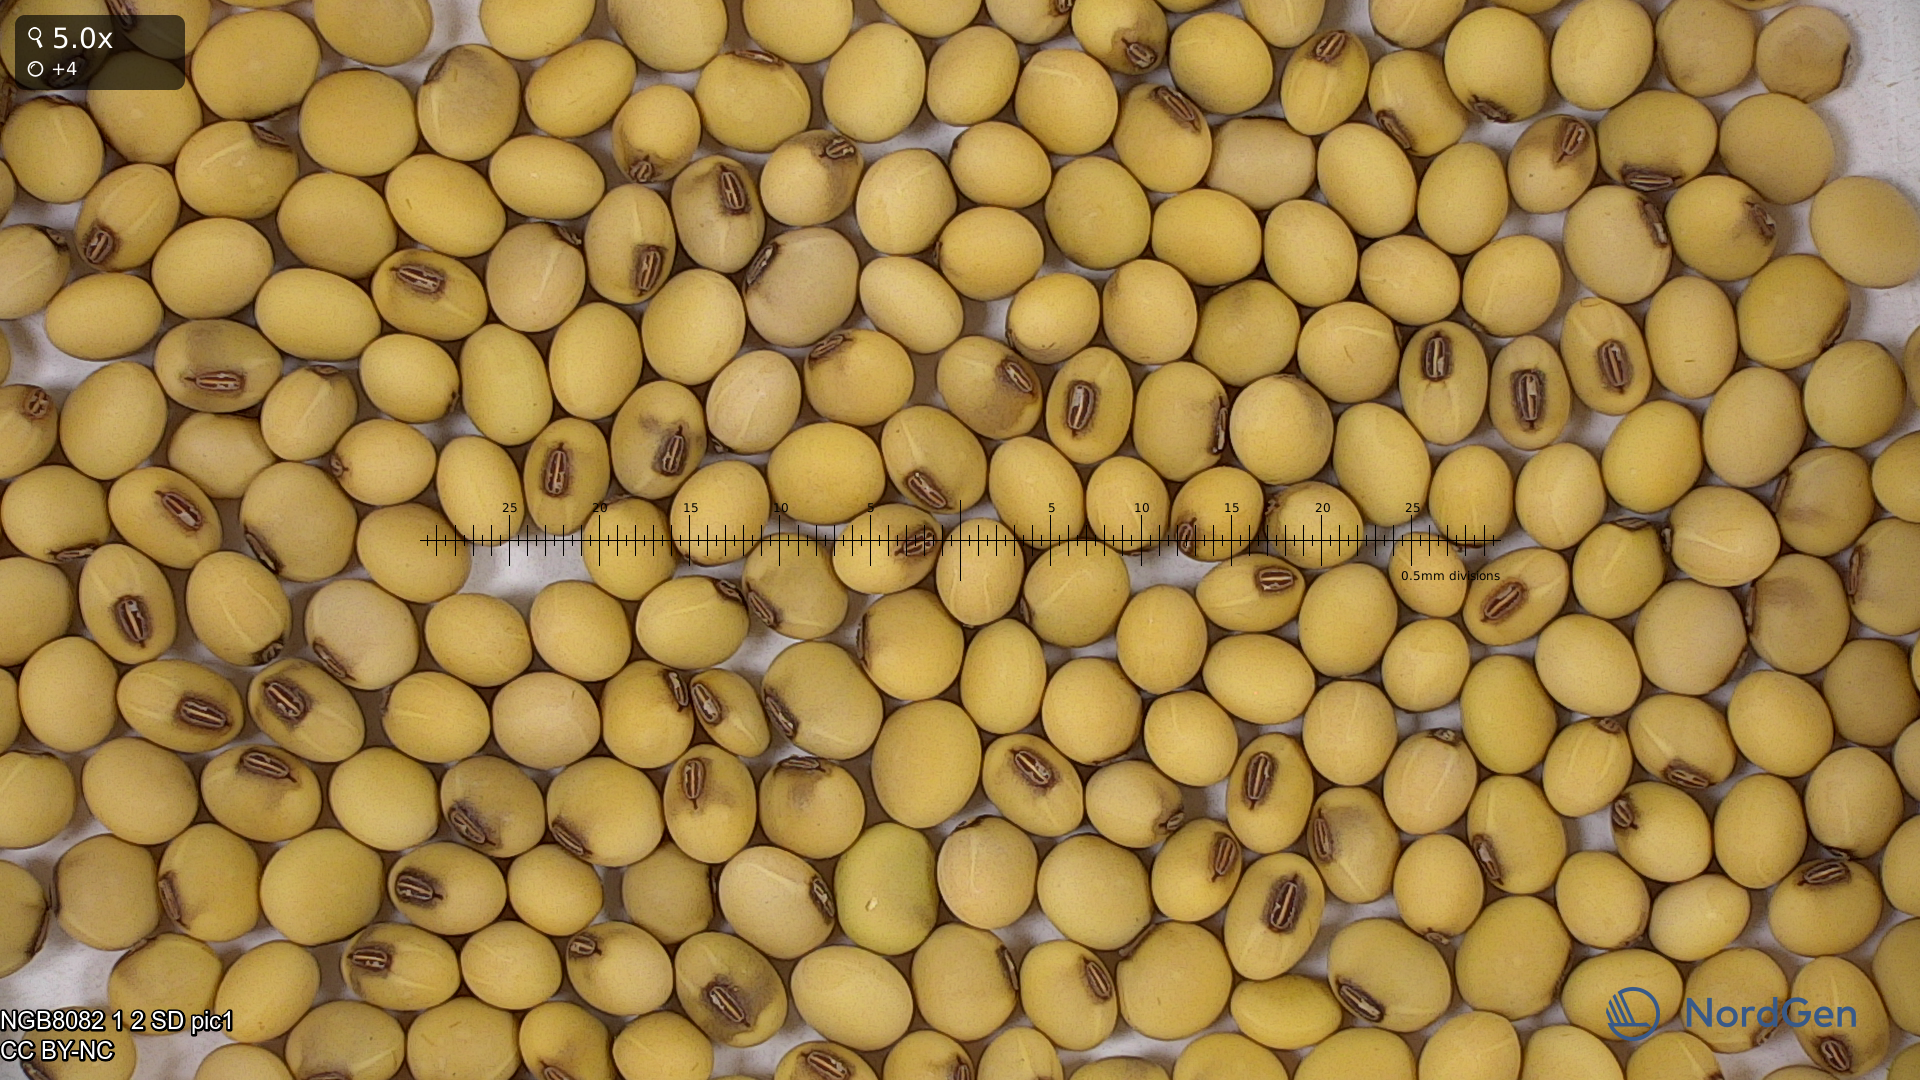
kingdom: Plantae
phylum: Tracheophyta
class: Magnoliopsida
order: Fabales
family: Fabaceae
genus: Glycine
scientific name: Glycine max
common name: Soya-bean
